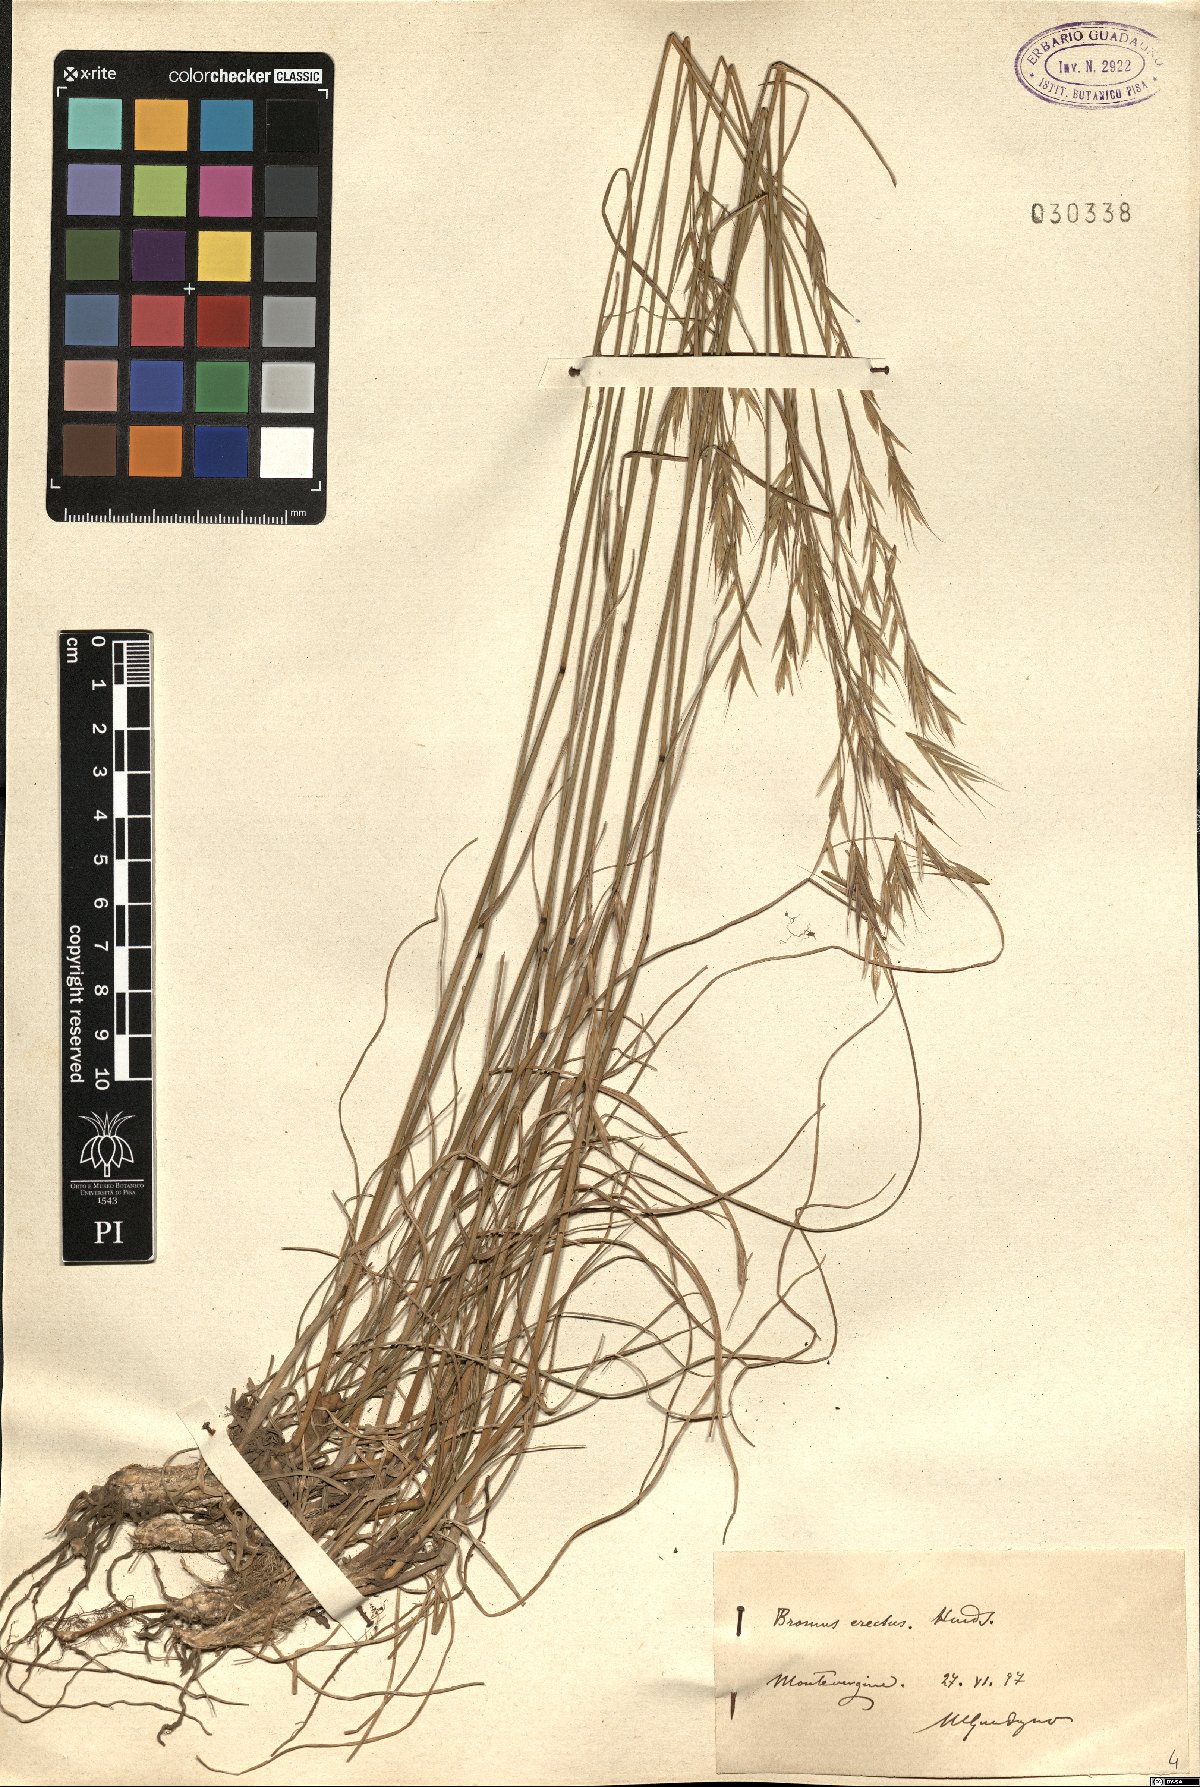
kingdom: Plantae
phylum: Tracheophyta
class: Liliopsida
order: Poales
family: Poaceae
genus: Bromus
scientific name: Bromus erectus
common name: Erect brome
